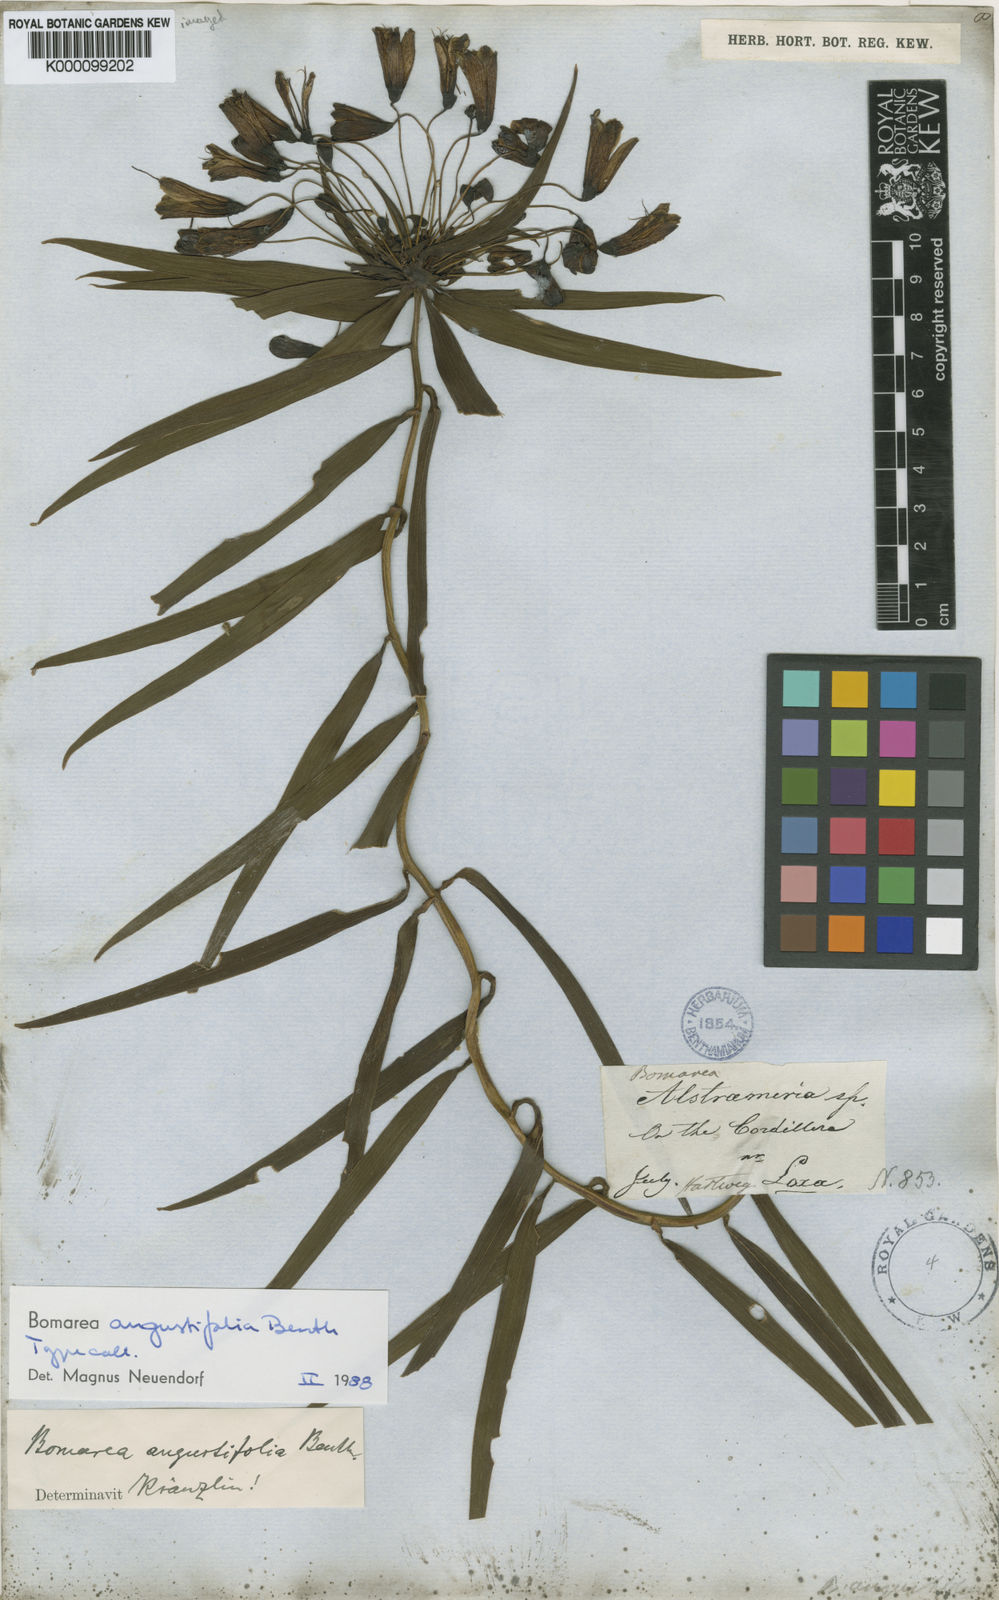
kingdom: Plantae
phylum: Tracheophyta
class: Liliopsida
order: Liliales
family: Alstroemeriaceae
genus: Bomarea
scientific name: Bomarea angulata
